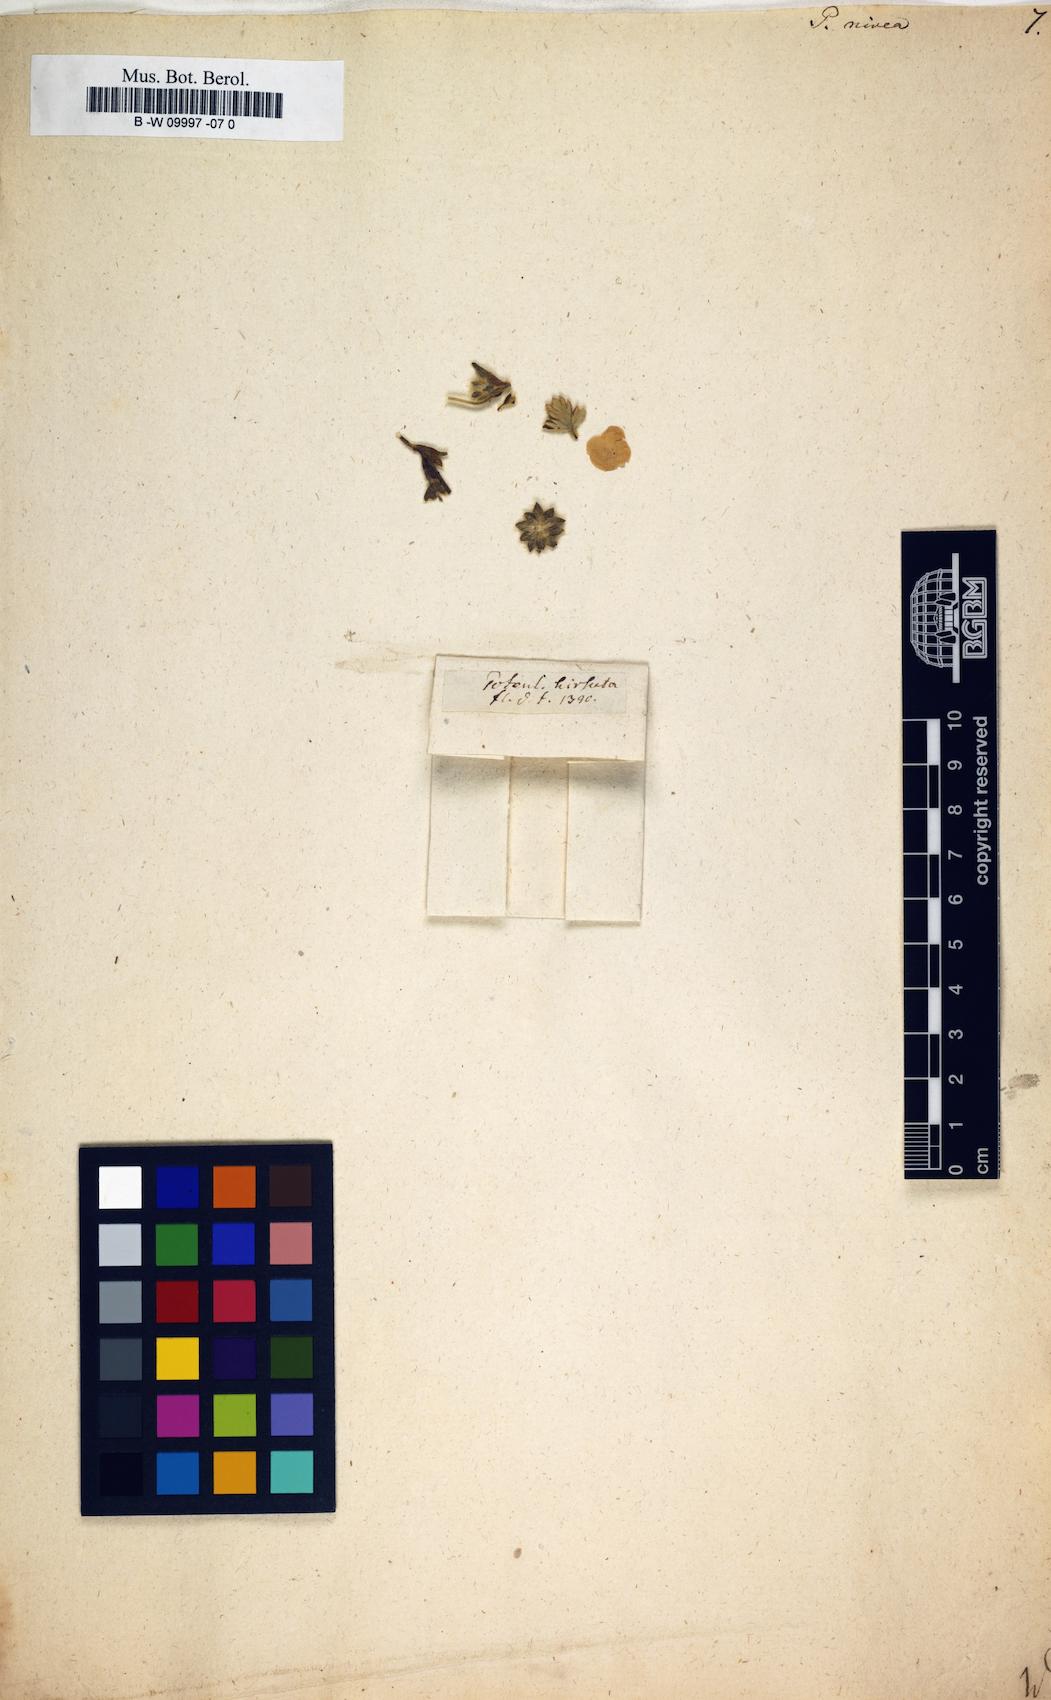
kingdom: Plantae
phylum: Tracheophyta
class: Magnoliopsida
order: Rosales
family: Rosaceae
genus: Potentilla
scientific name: Potentilla nivea
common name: Snow cinquefoil
